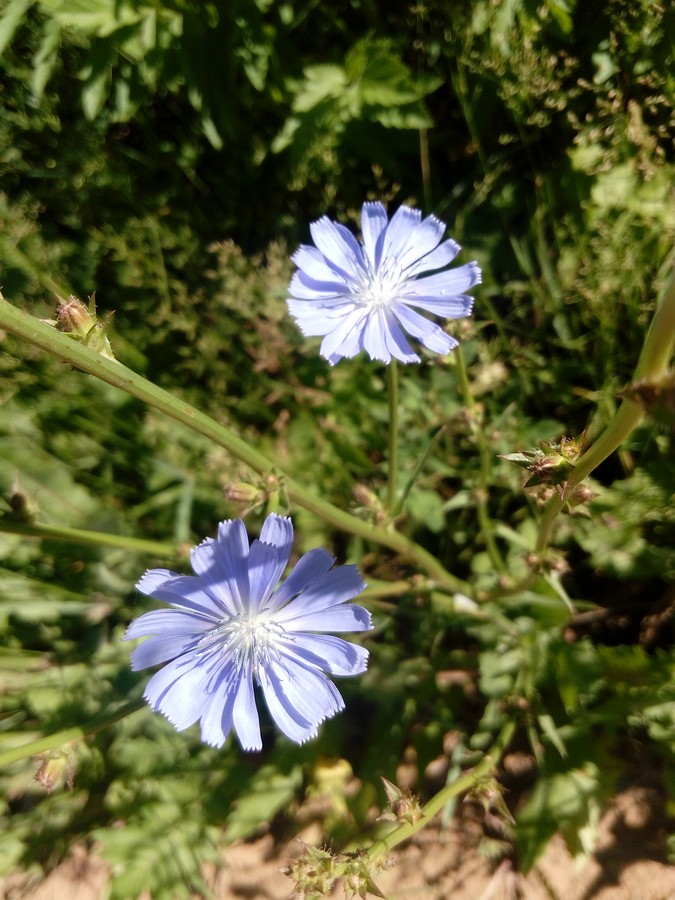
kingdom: Plantae
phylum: Tracheophyta
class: Magnoliopsida
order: Asterales
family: Asteraceae
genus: Cichorium
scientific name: Cichorium intybus
